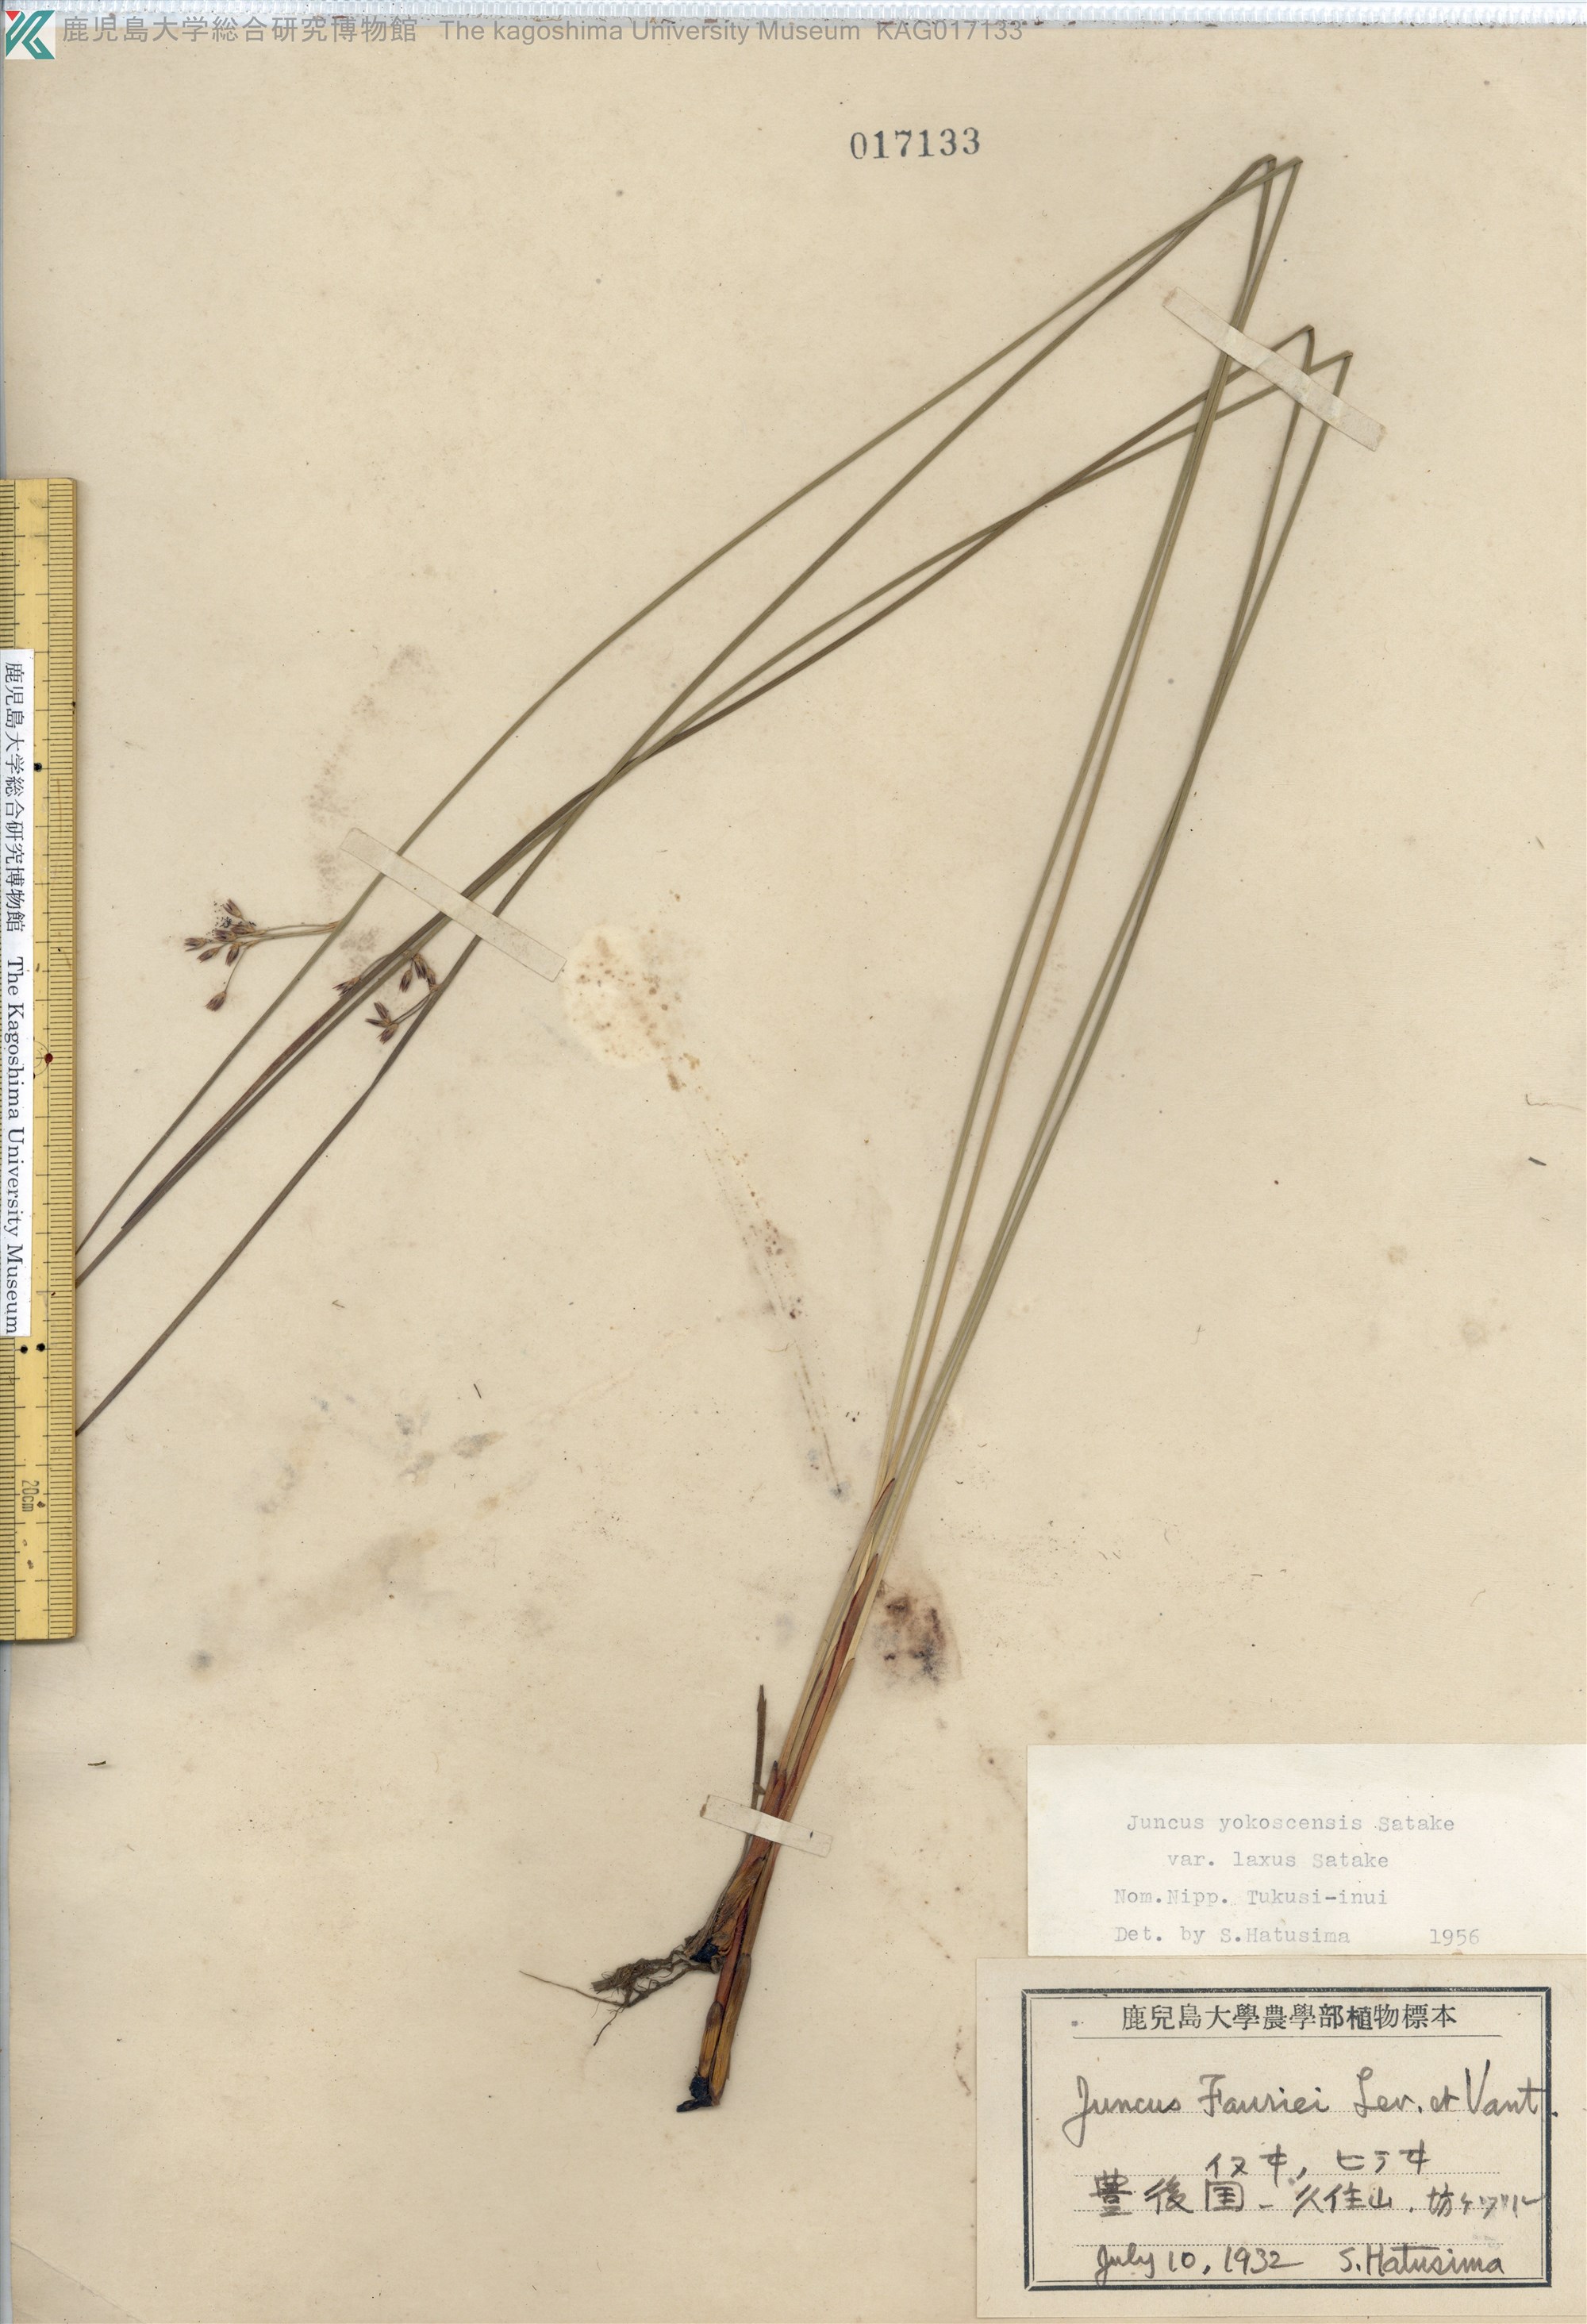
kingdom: Plantae
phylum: Tracheophyta
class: Liliopsida
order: Poales
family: Juncaceae
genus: Juncus
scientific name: Juncus fauriei
